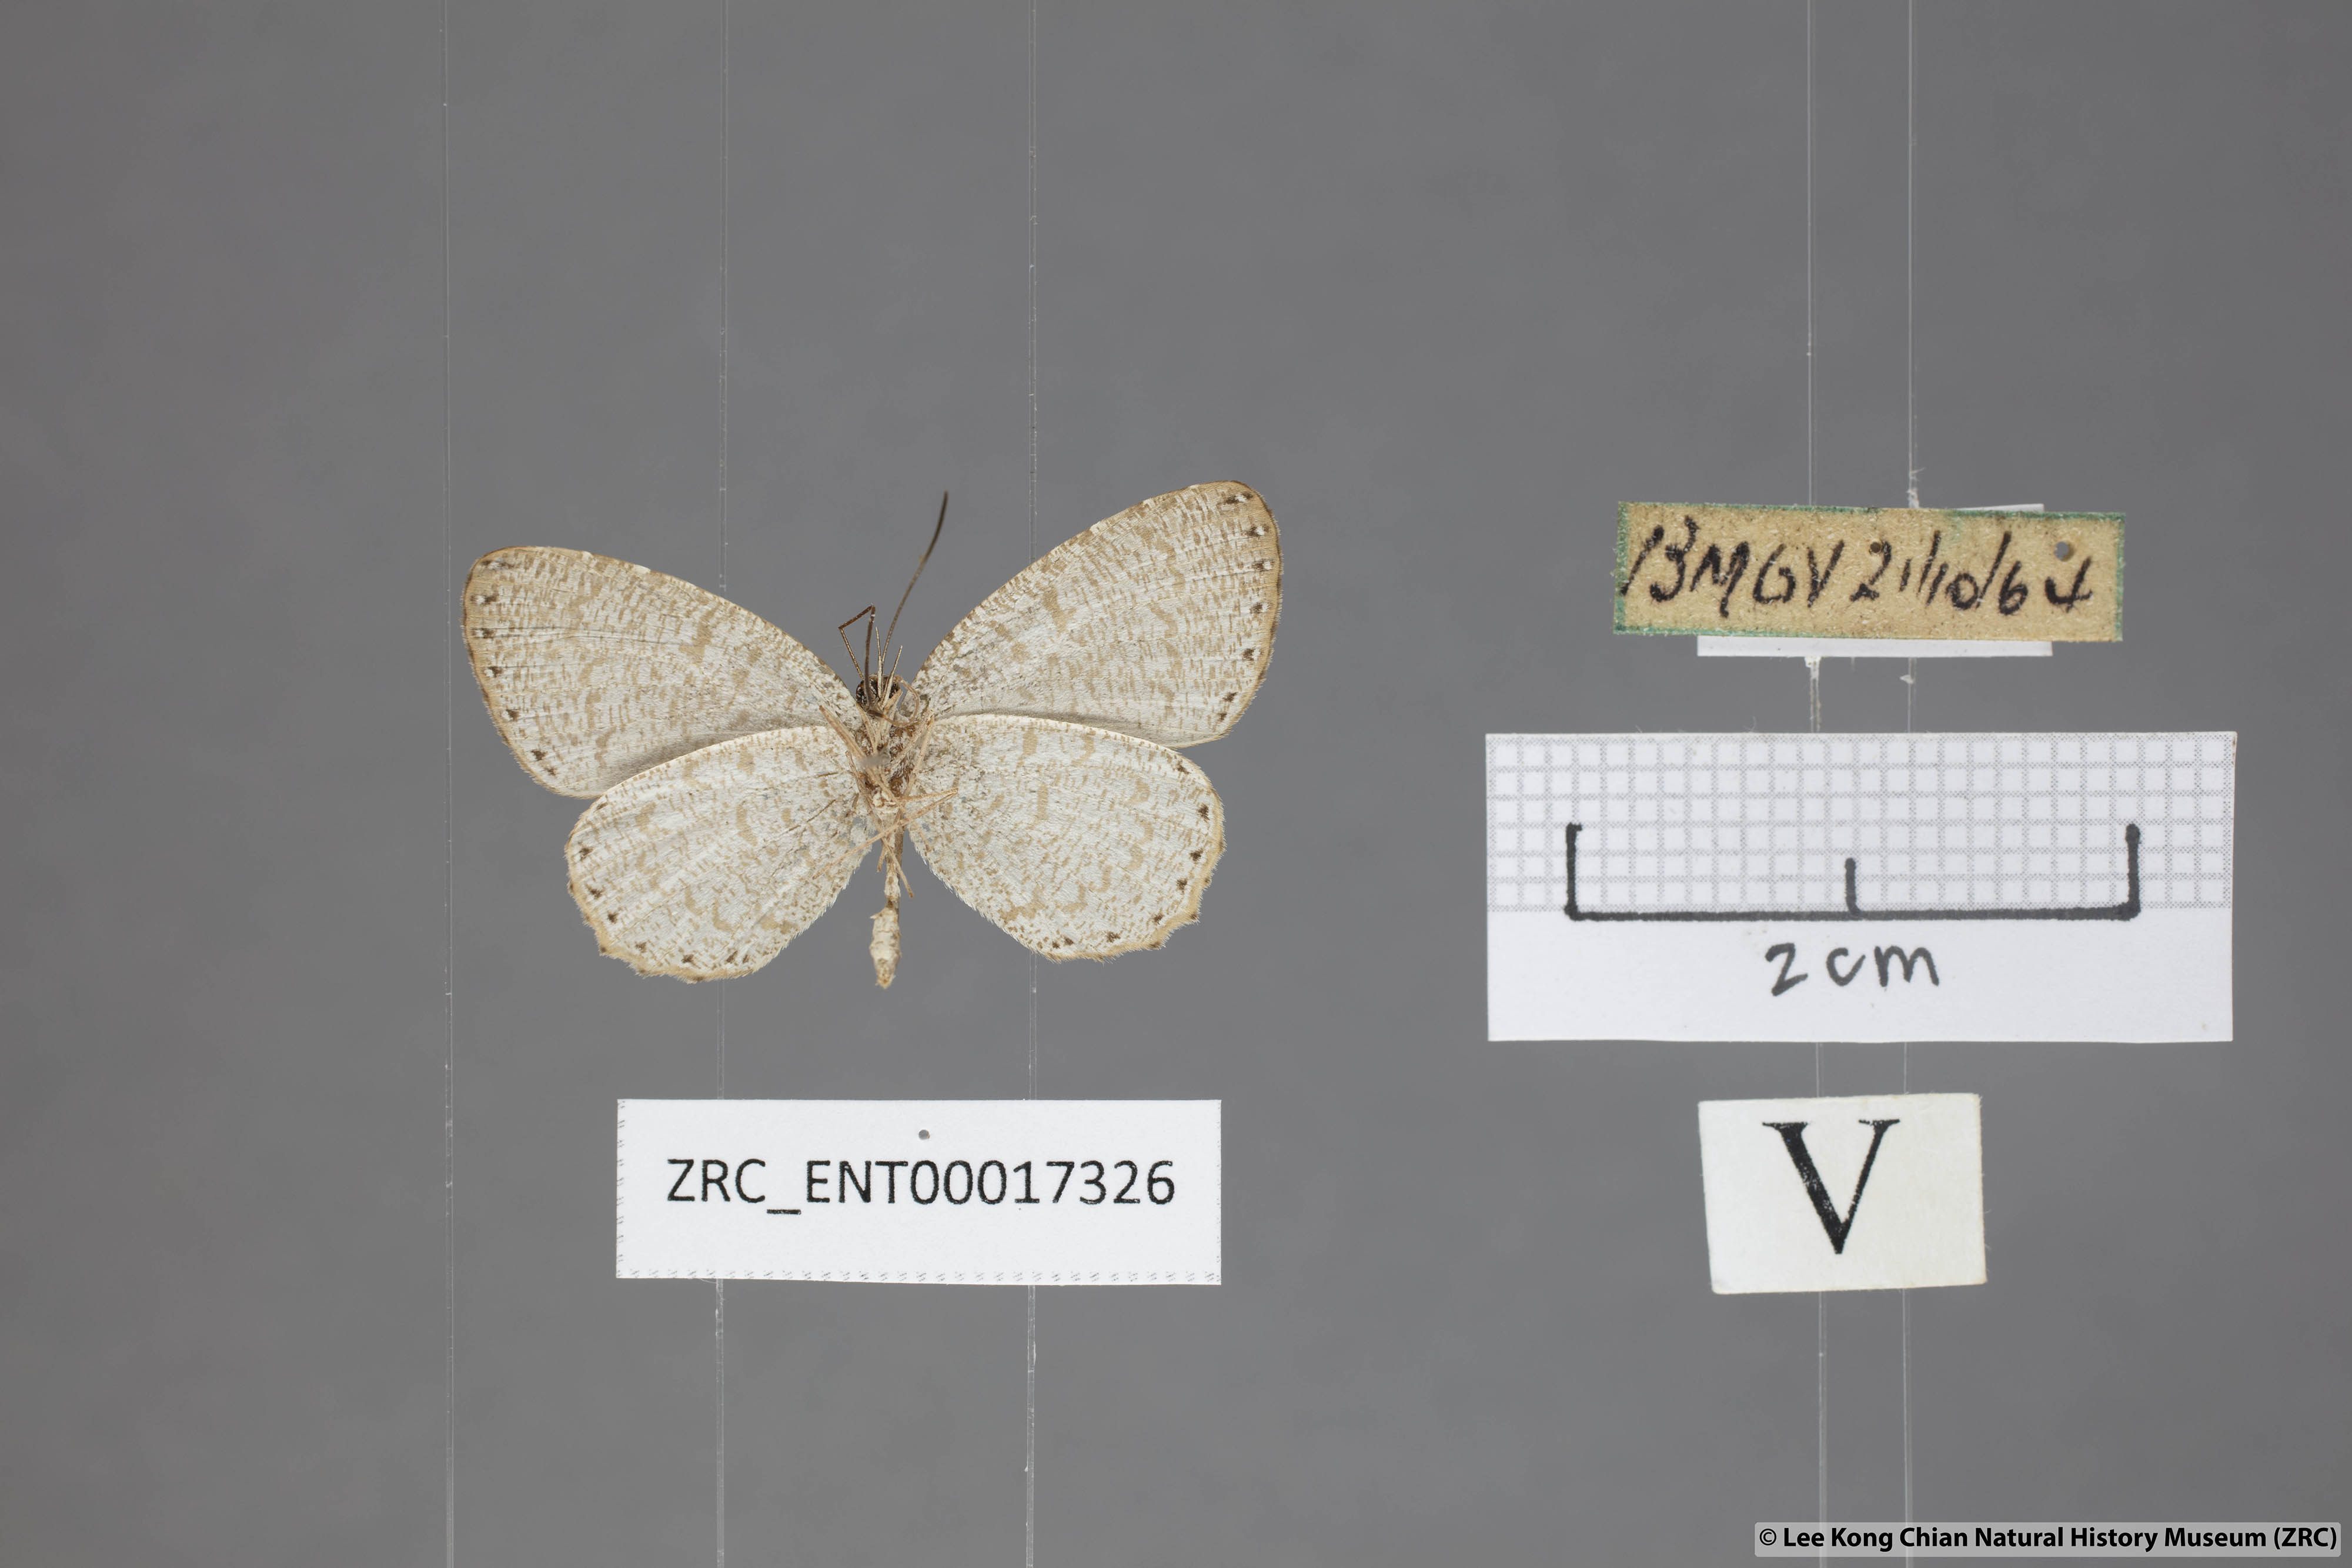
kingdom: Animalia
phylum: Arthropoda
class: Insecta
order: Lepidoptera
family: Lycaenidae
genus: Allotinus
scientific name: Allotinus sarastes
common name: Peninsular darkie
